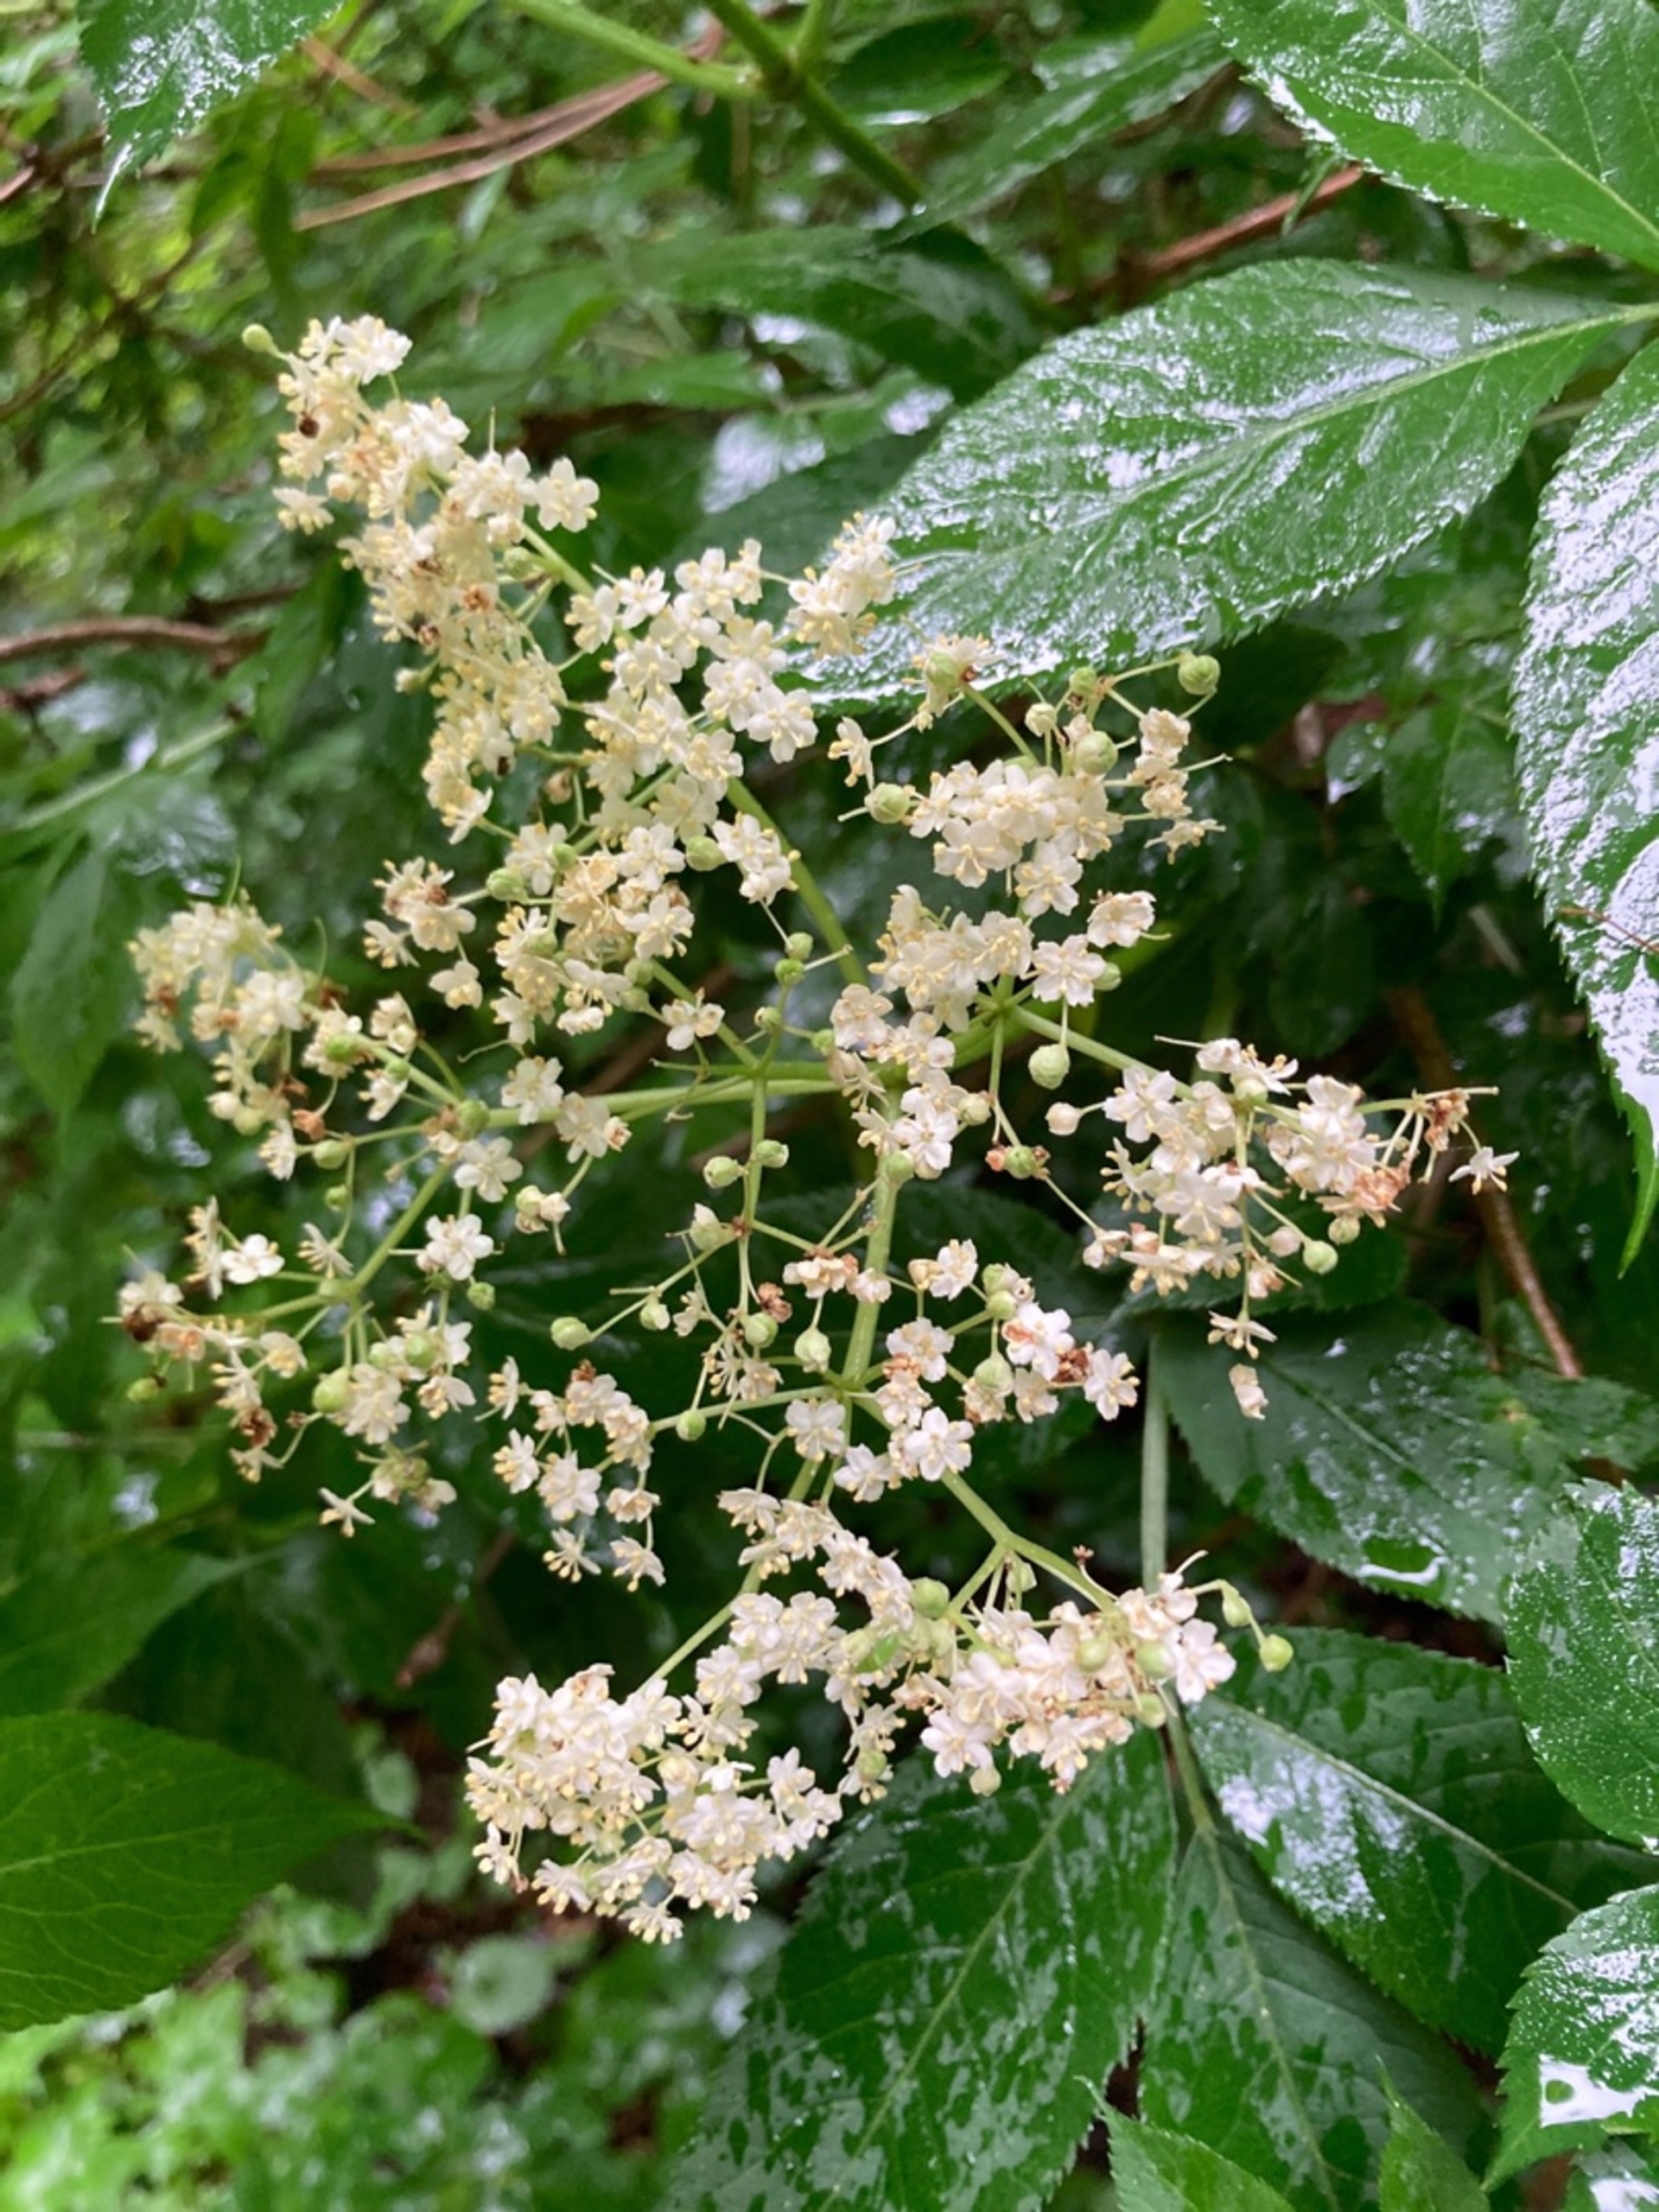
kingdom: Plantae
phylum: Tracheophyta
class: Magnoliopsida
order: Dipsacales
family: Viburnaceae
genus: Sambucus
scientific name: Sambucus nigra
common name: Almindelig hyld
